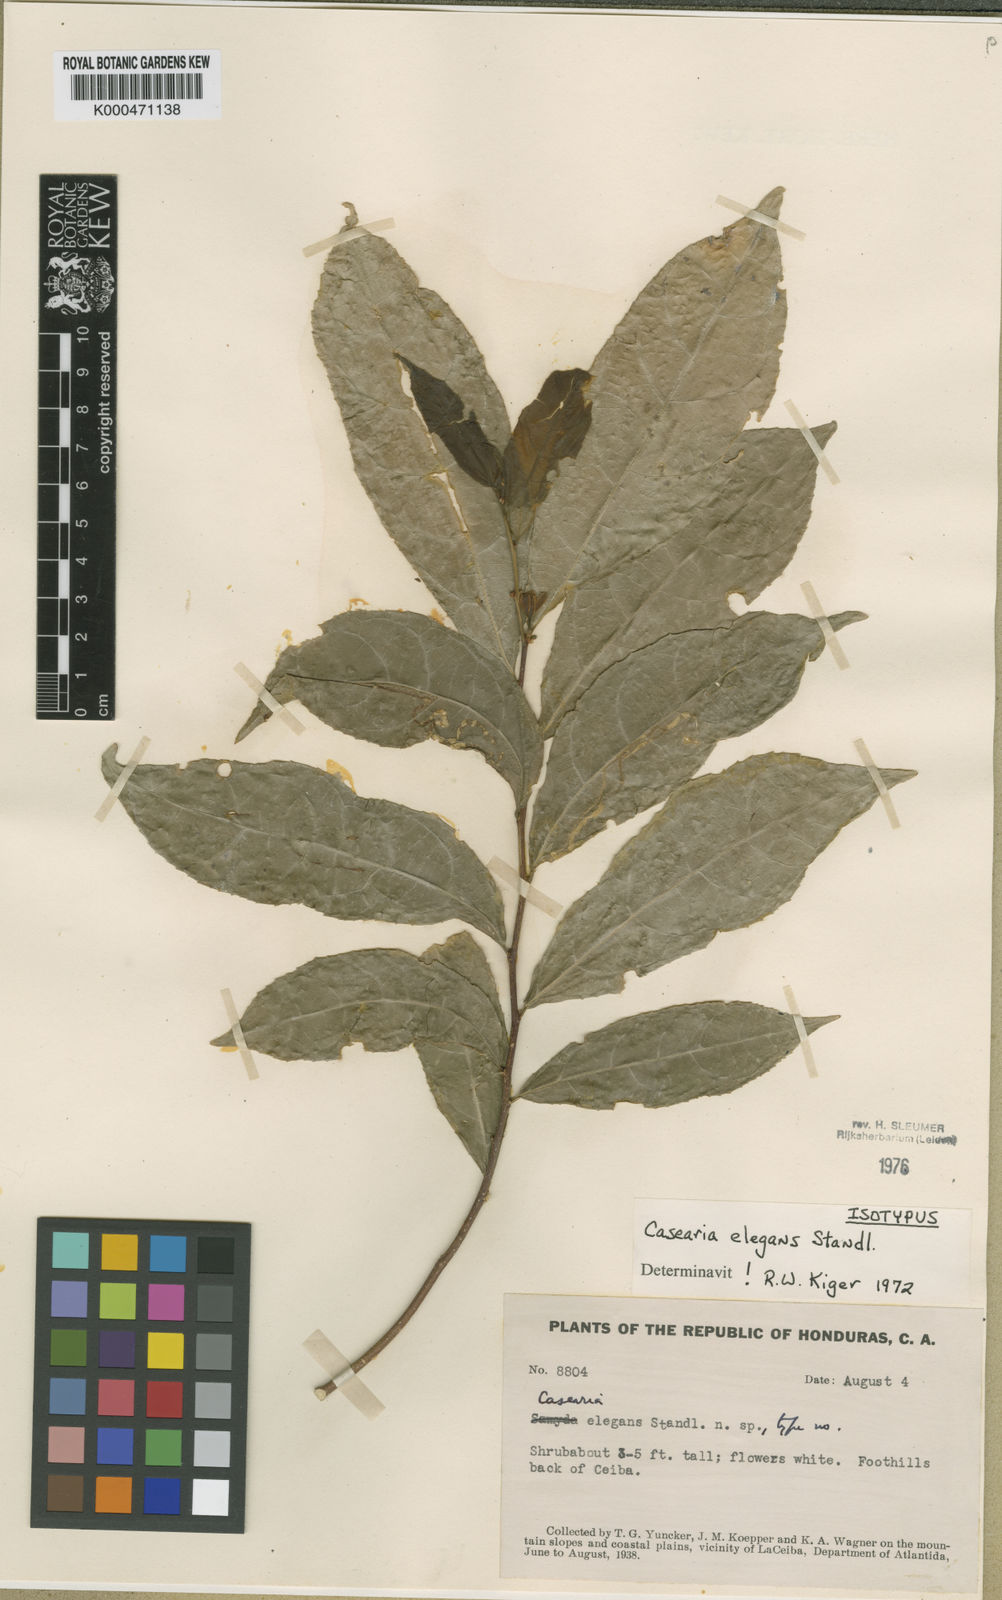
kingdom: Plantae
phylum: Tracheophyta
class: Magnoliopsida
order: Malpighiales
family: Salicaceae
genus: Casearia
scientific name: Casearia elegans
